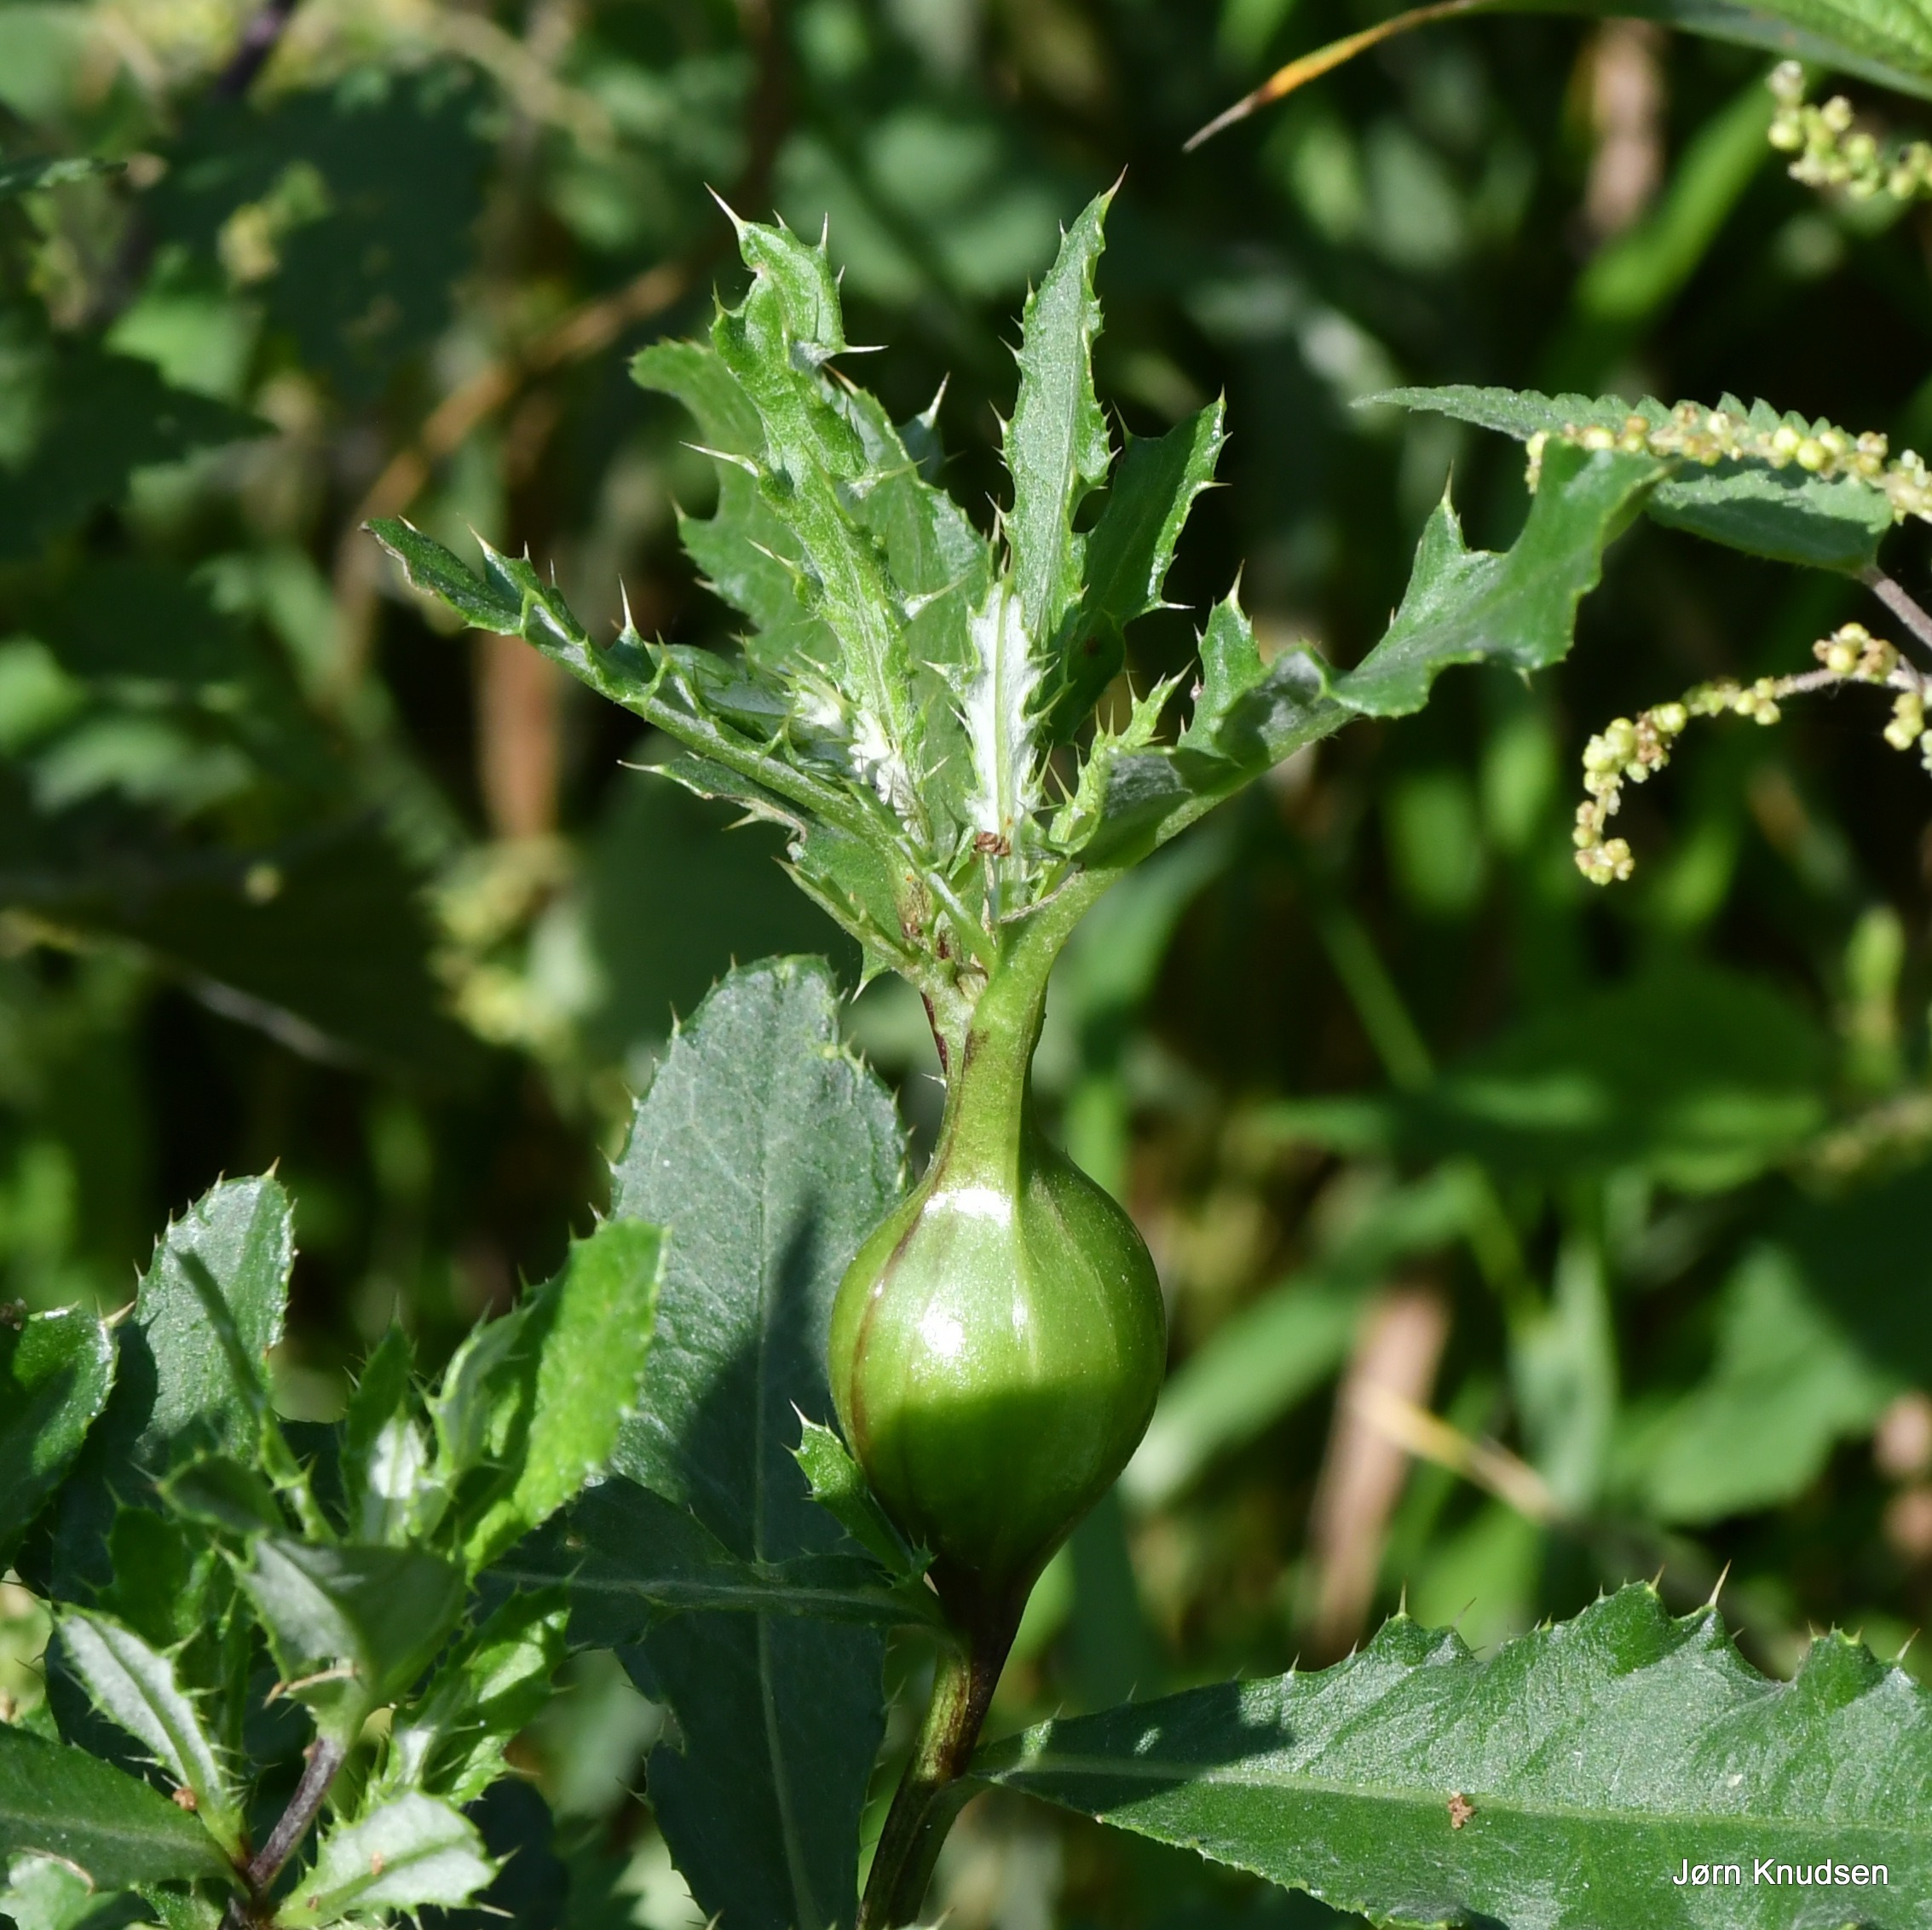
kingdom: Plantae
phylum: Tracheophyta
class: Magnoliopsida
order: Asterales
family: Asteraceae
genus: Cirsium
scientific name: Cirsium arvense
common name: Ager-tidsel
